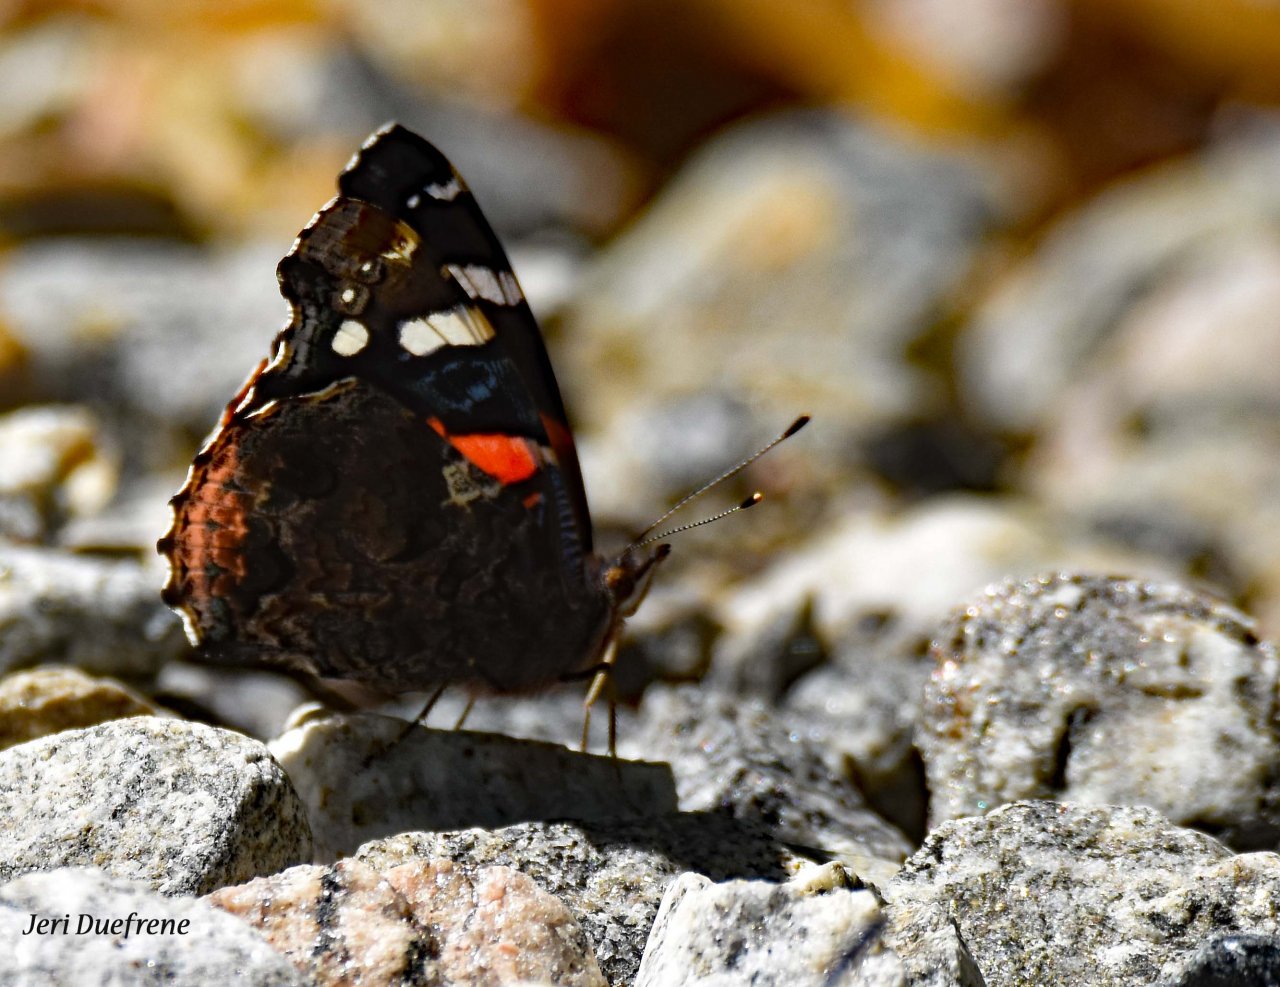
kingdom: Animalia
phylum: Arthropoda
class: Insecta
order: Lepidoptera
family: Nymphalidae
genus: Vanessa
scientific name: Vanessa atalanta
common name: Red Admiral
